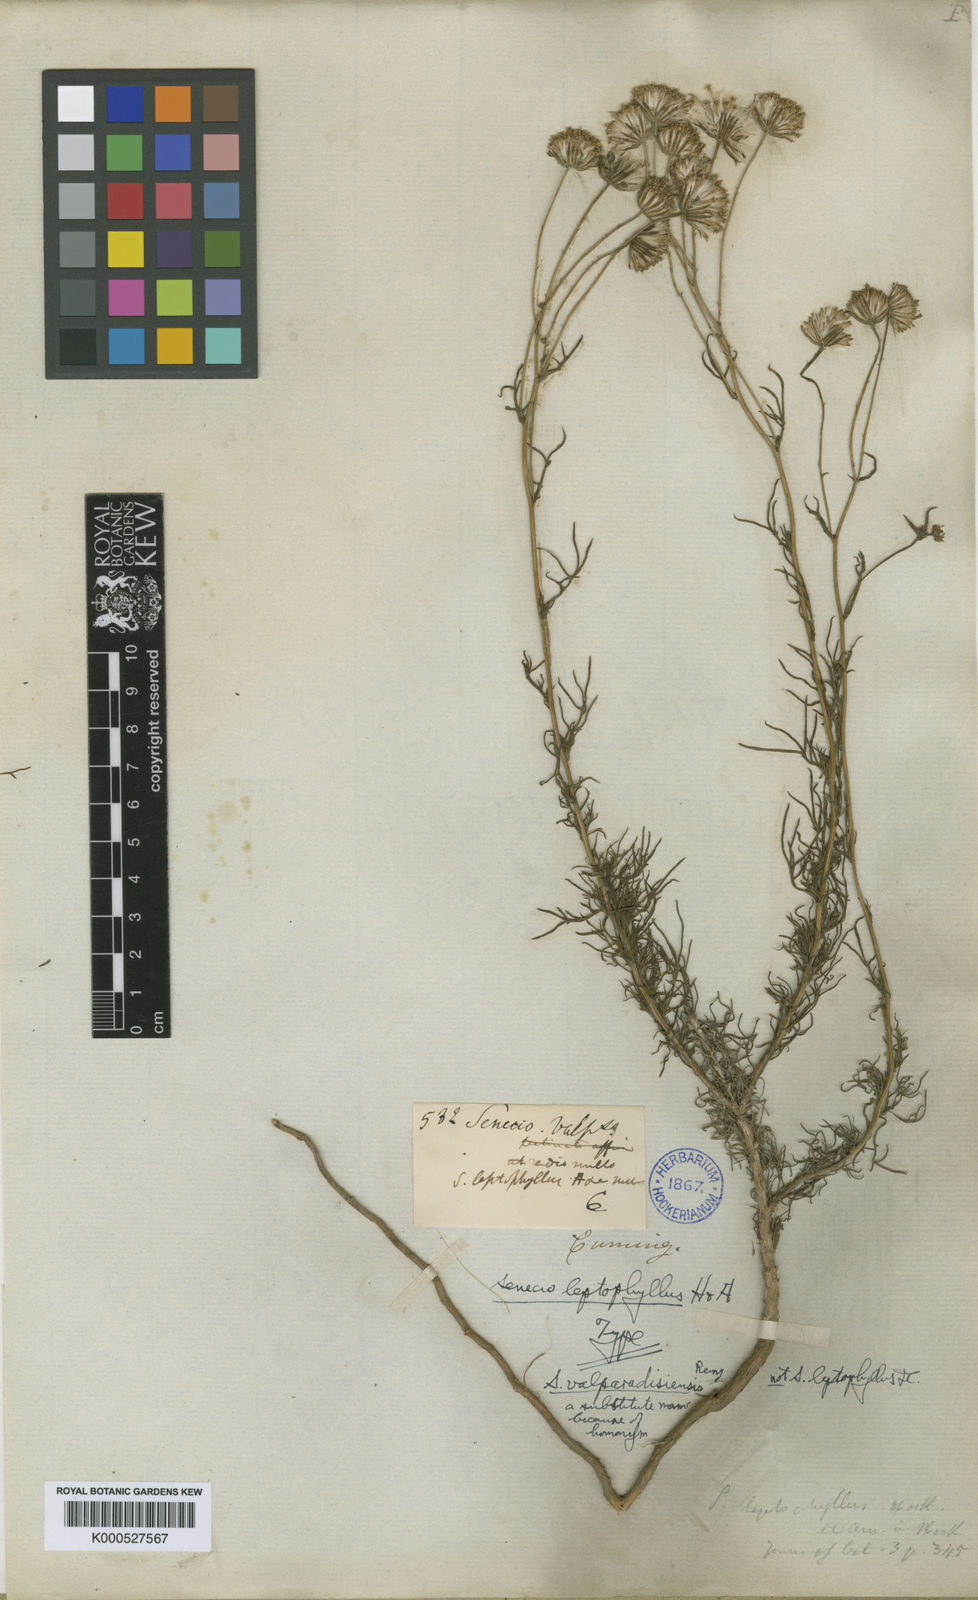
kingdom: Plantae
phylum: Tracheophyta
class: Magnoliopsida
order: Asterales
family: Asteraceae
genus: Senecio
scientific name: Senecio hakeifolius
